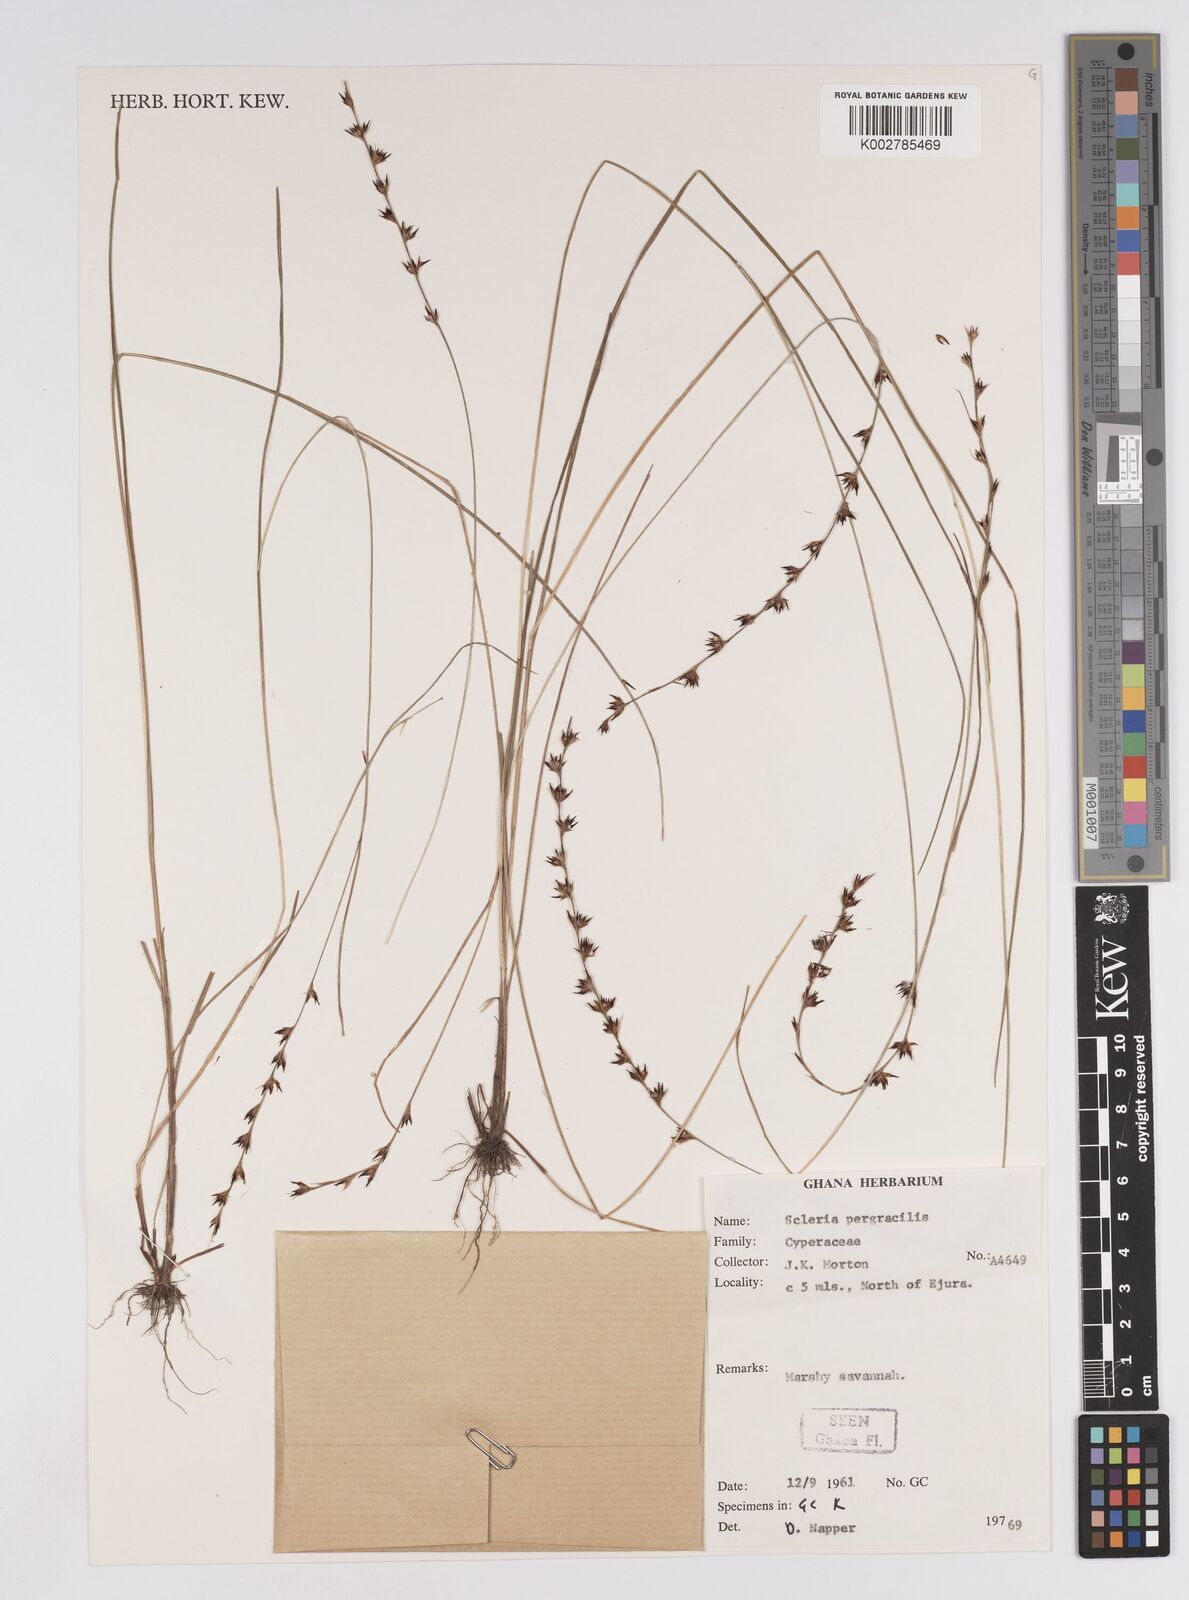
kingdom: Plantae
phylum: Tracheophyta
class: Liliopsida
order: Poales
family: Cyperaceae
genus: Scleria
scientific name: Scleria pergracilis
